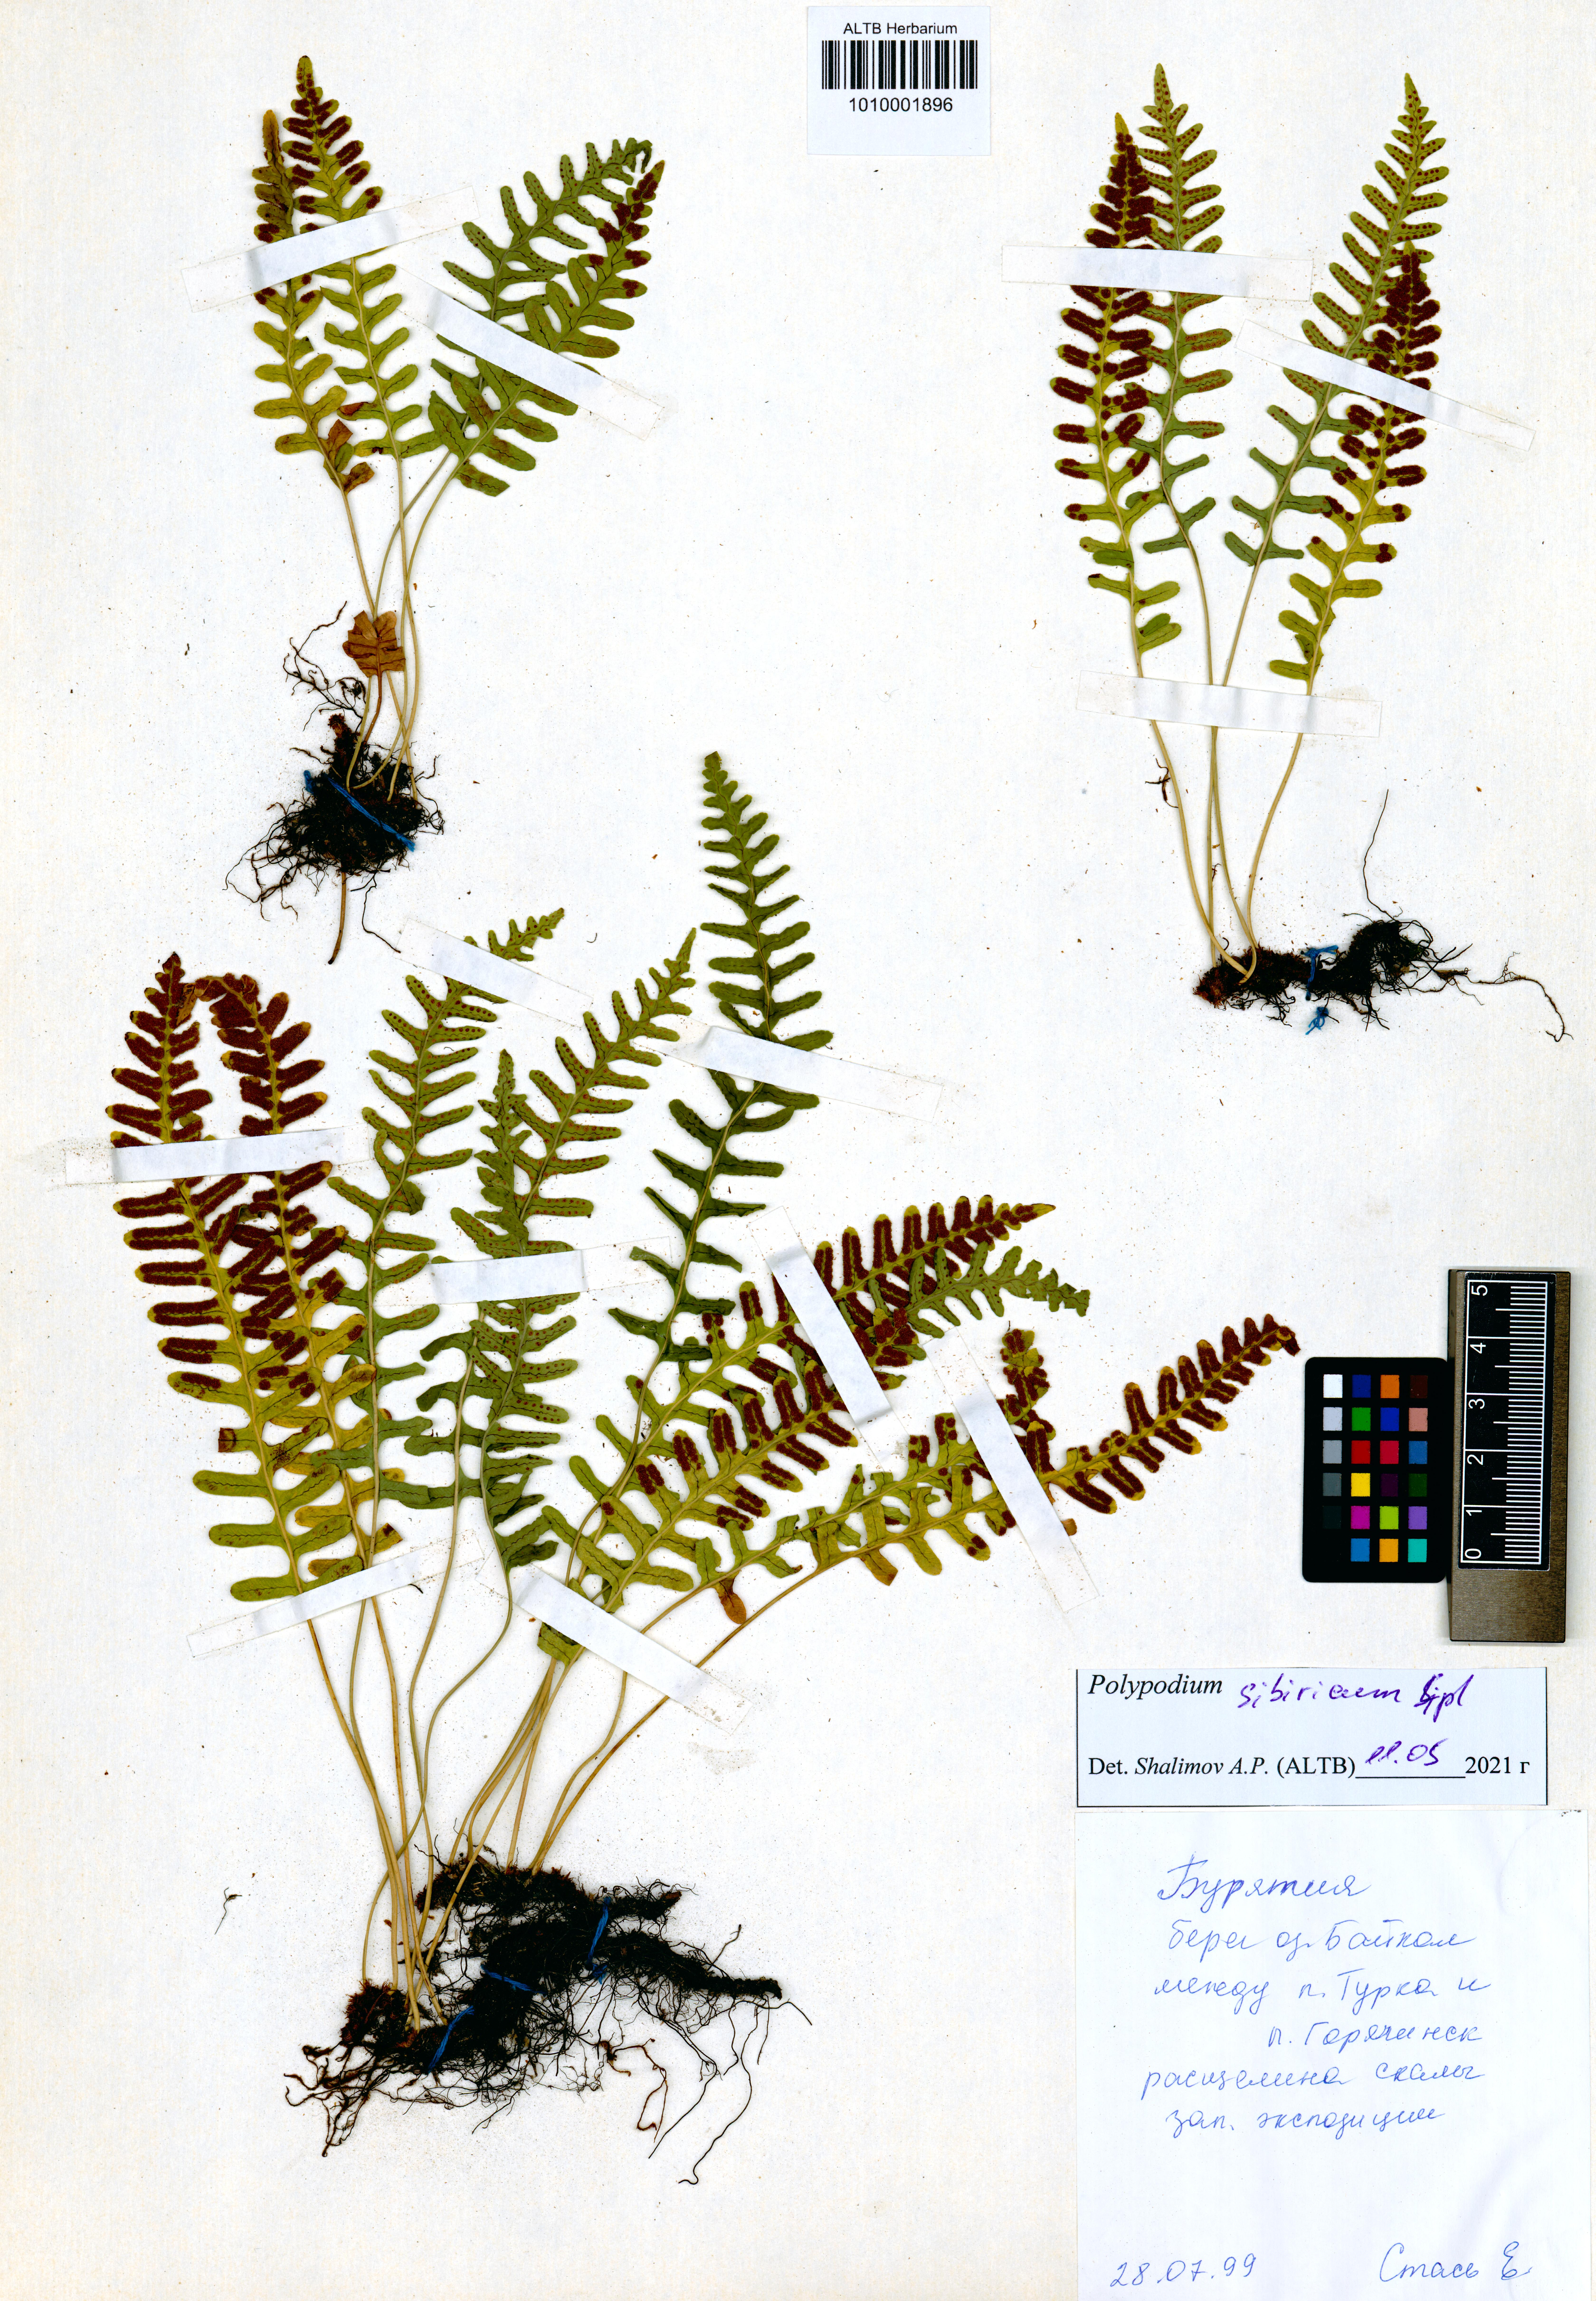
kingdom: Plantae
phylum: Tracheophyta
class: Polypodiopsida
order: Polypodiales
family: Polypodiaceae
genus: Polypodium
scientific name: Polypodium sibiricum
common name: Siberian polypody
